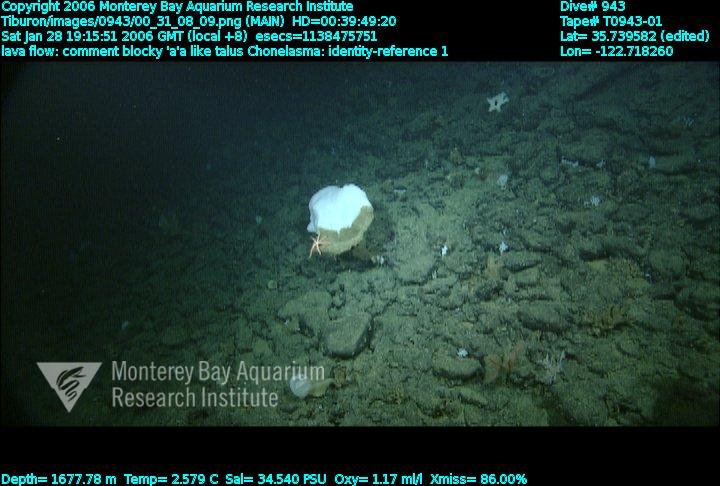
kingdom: Animalia
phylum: Porifera
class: Hexactinellida
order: Sceptrulophora
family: Euretidae
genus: Chonelasma
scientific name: Chonelasma
